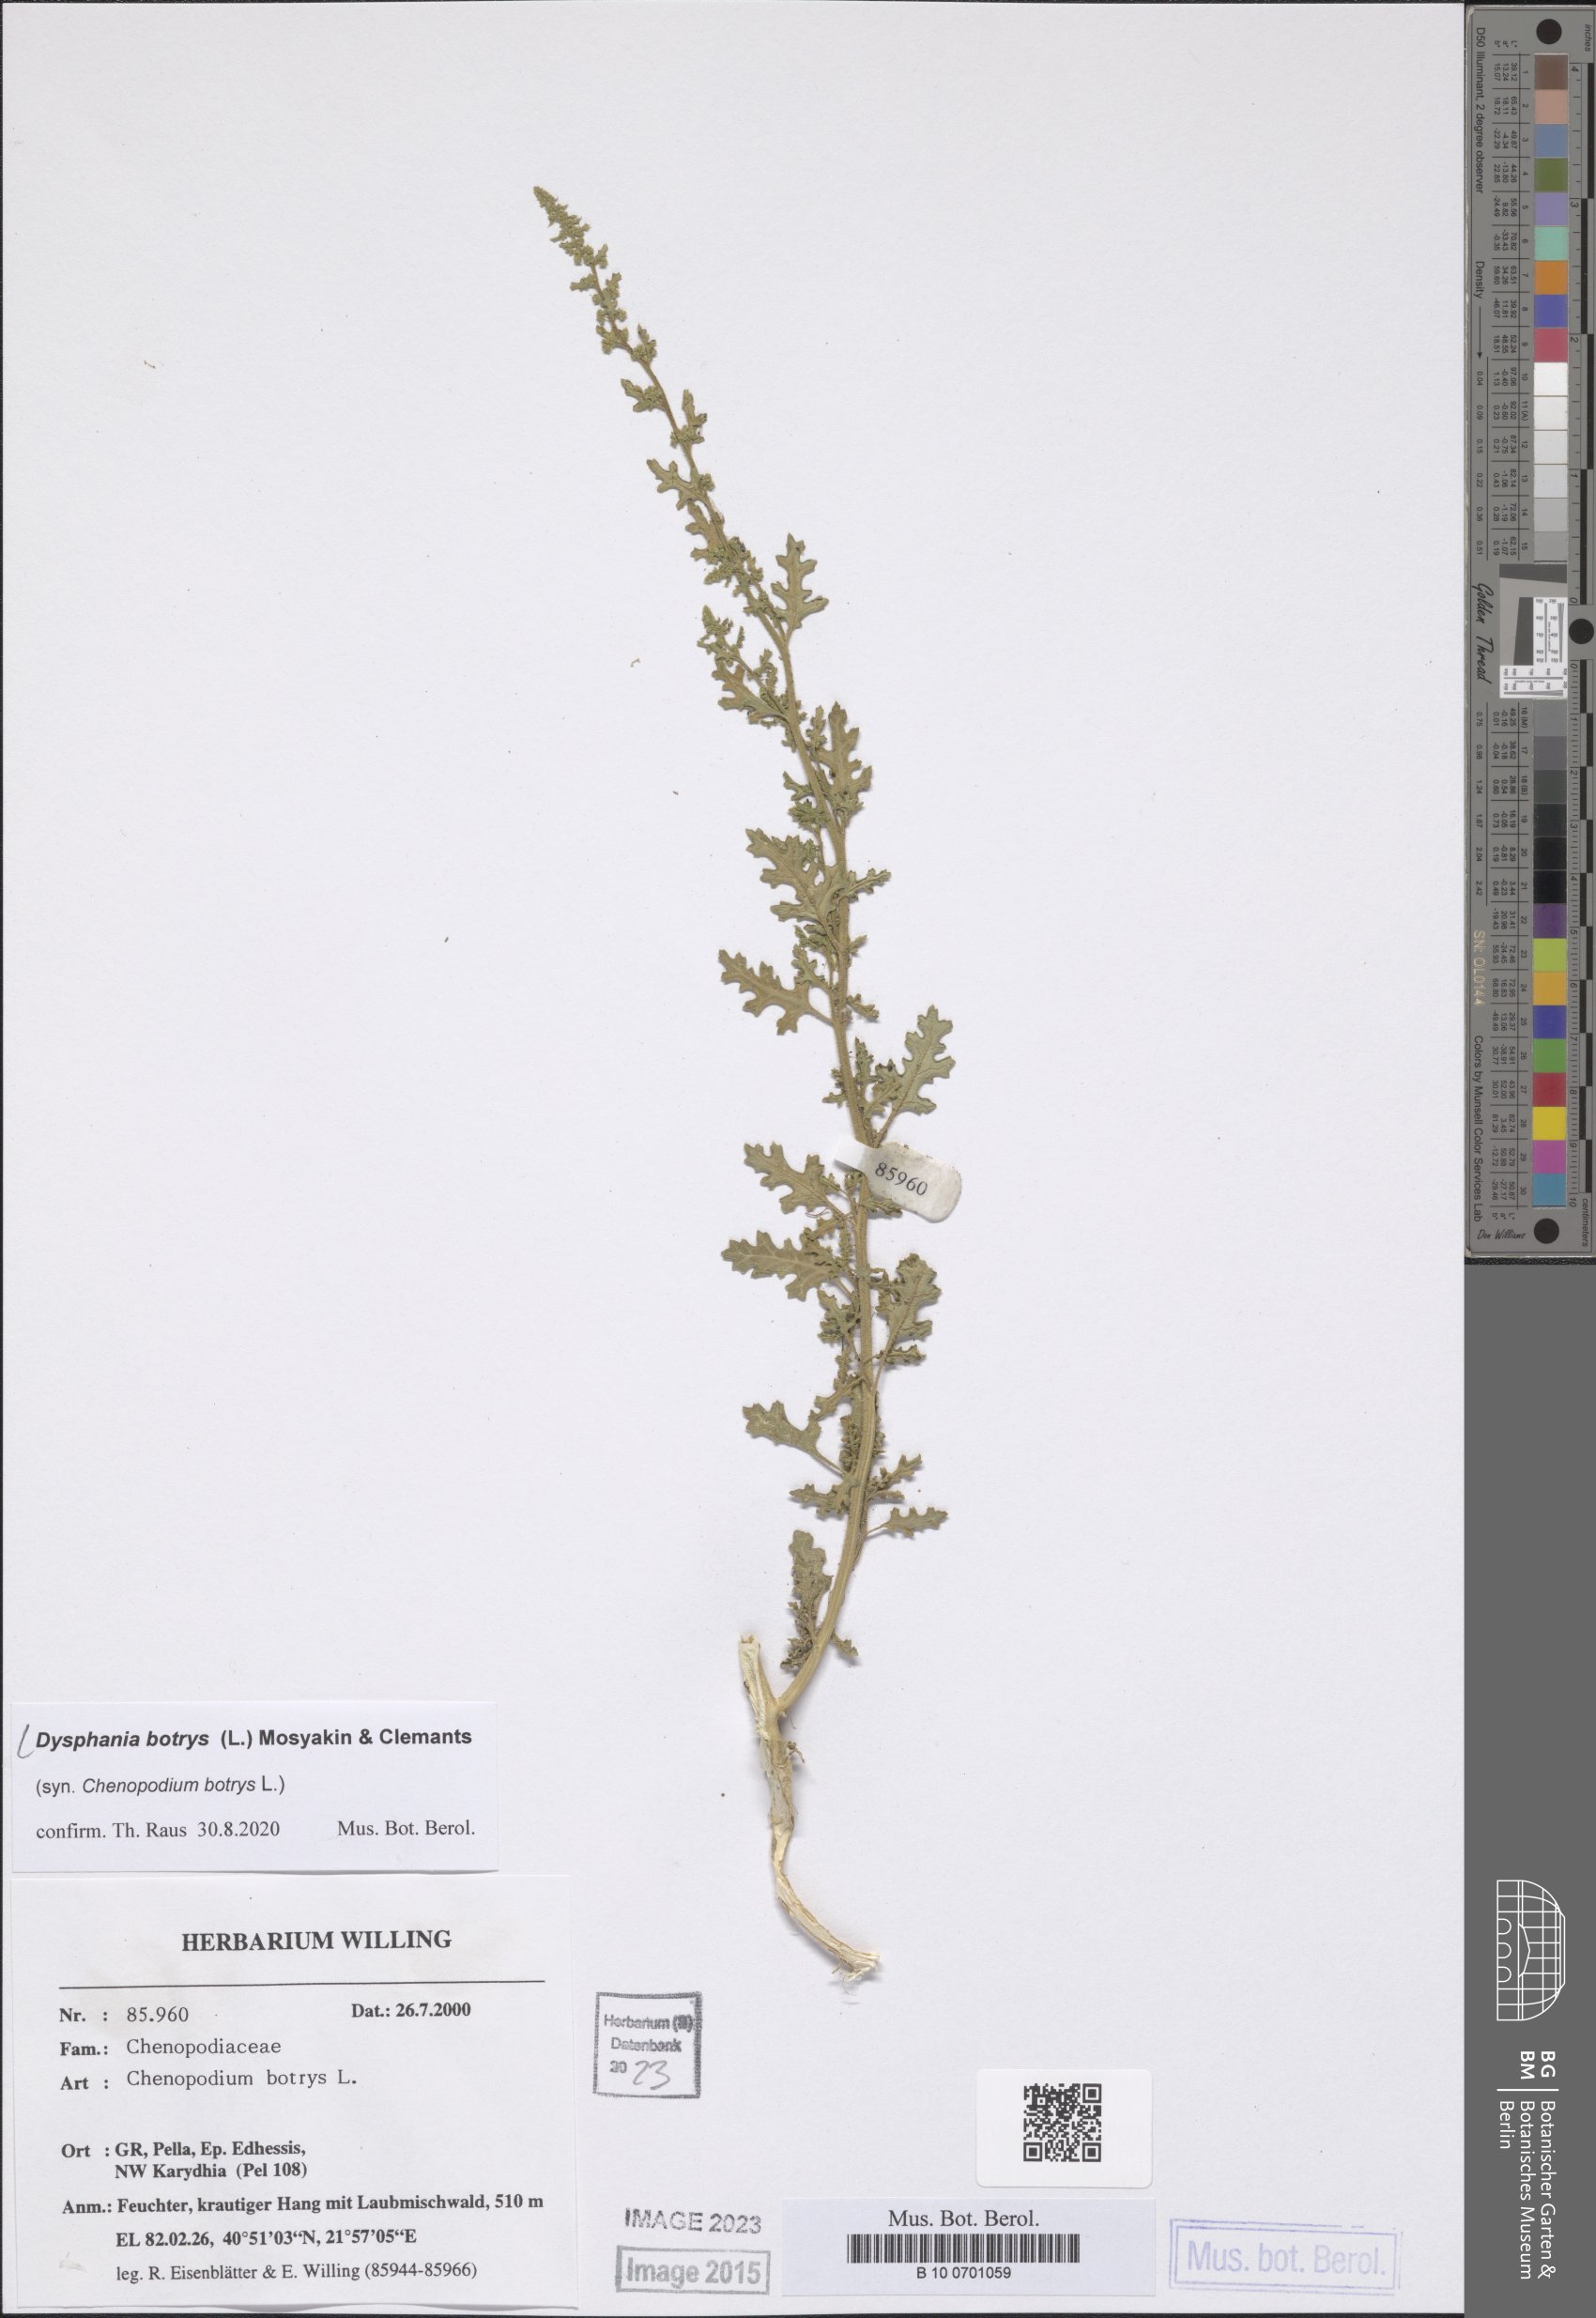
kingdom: Plantae
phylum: Tracheophyta
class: Magnoliopsida
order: Caryophyllales
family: Amaranthaceae
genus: Dysphania
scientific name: Dysphania botrys
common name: Feather-geranium
